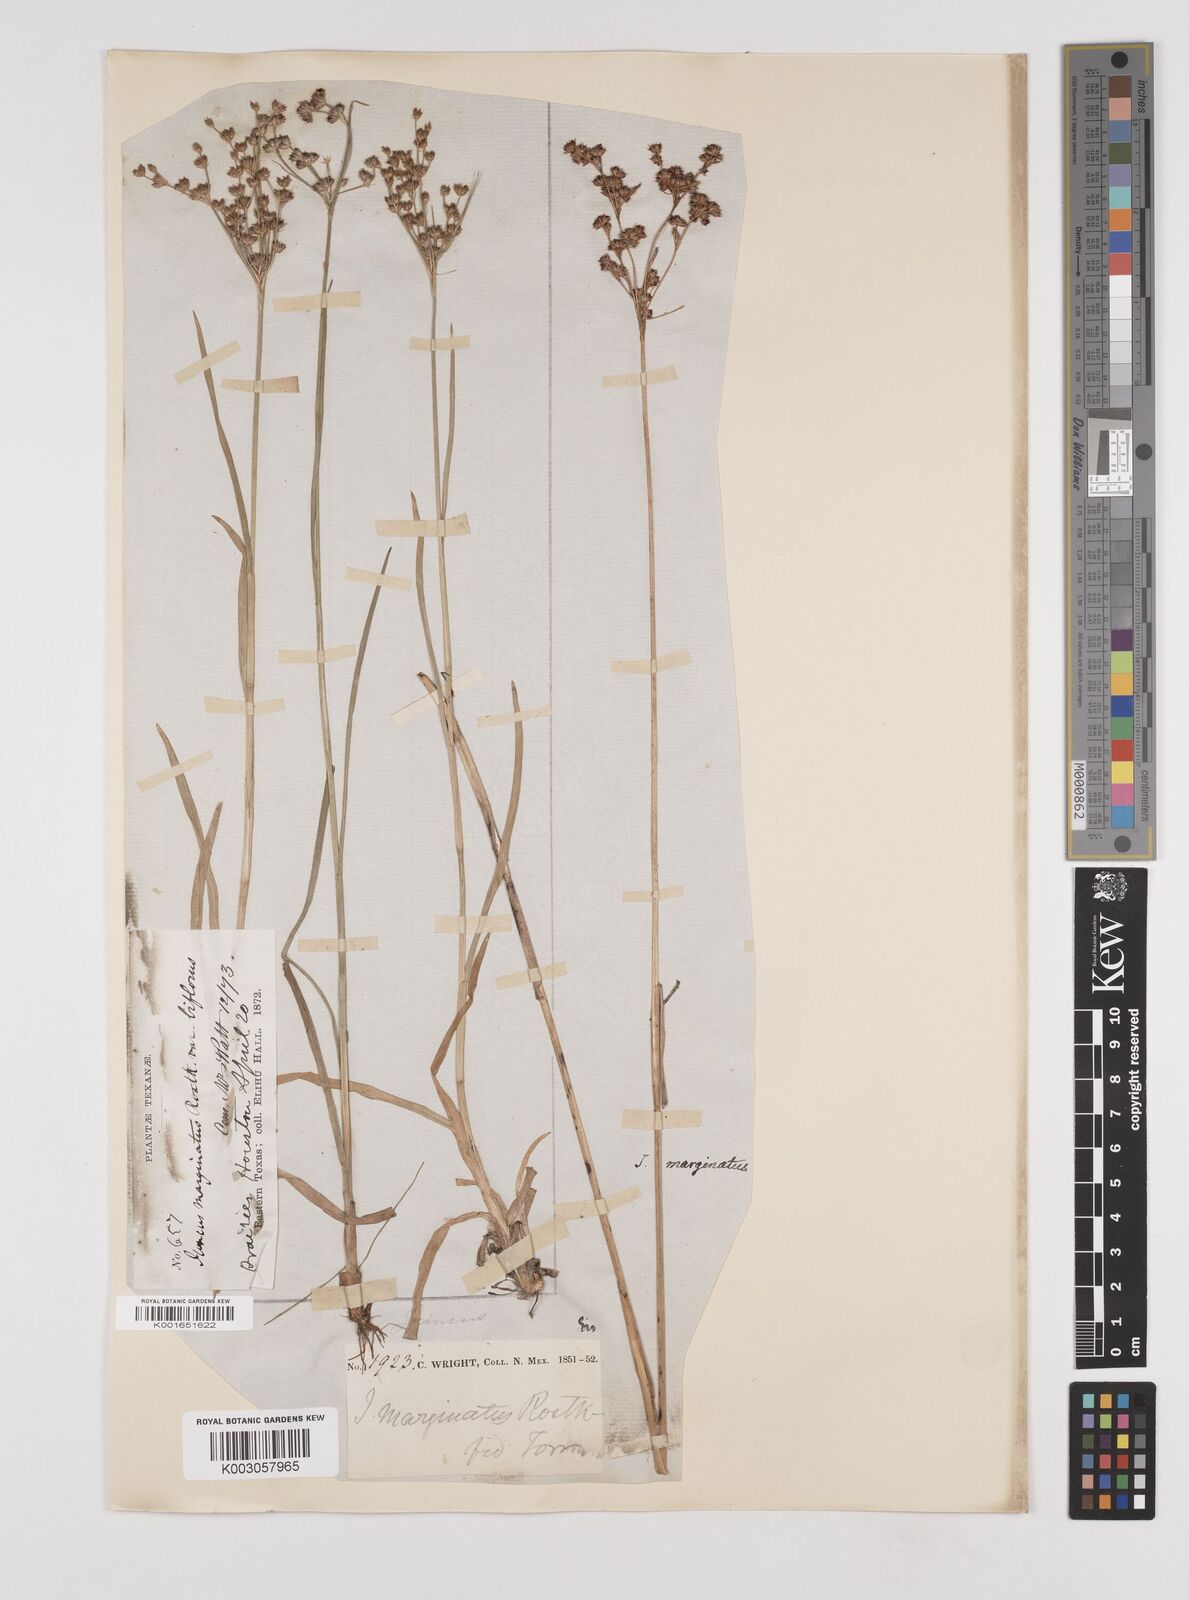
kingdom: Plantae
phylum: Tracheophyta
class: Liliopsida
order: Poales
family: Juncaceae
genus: Juncus
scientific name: Juncus marginatus
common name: Grass-leaf rush
